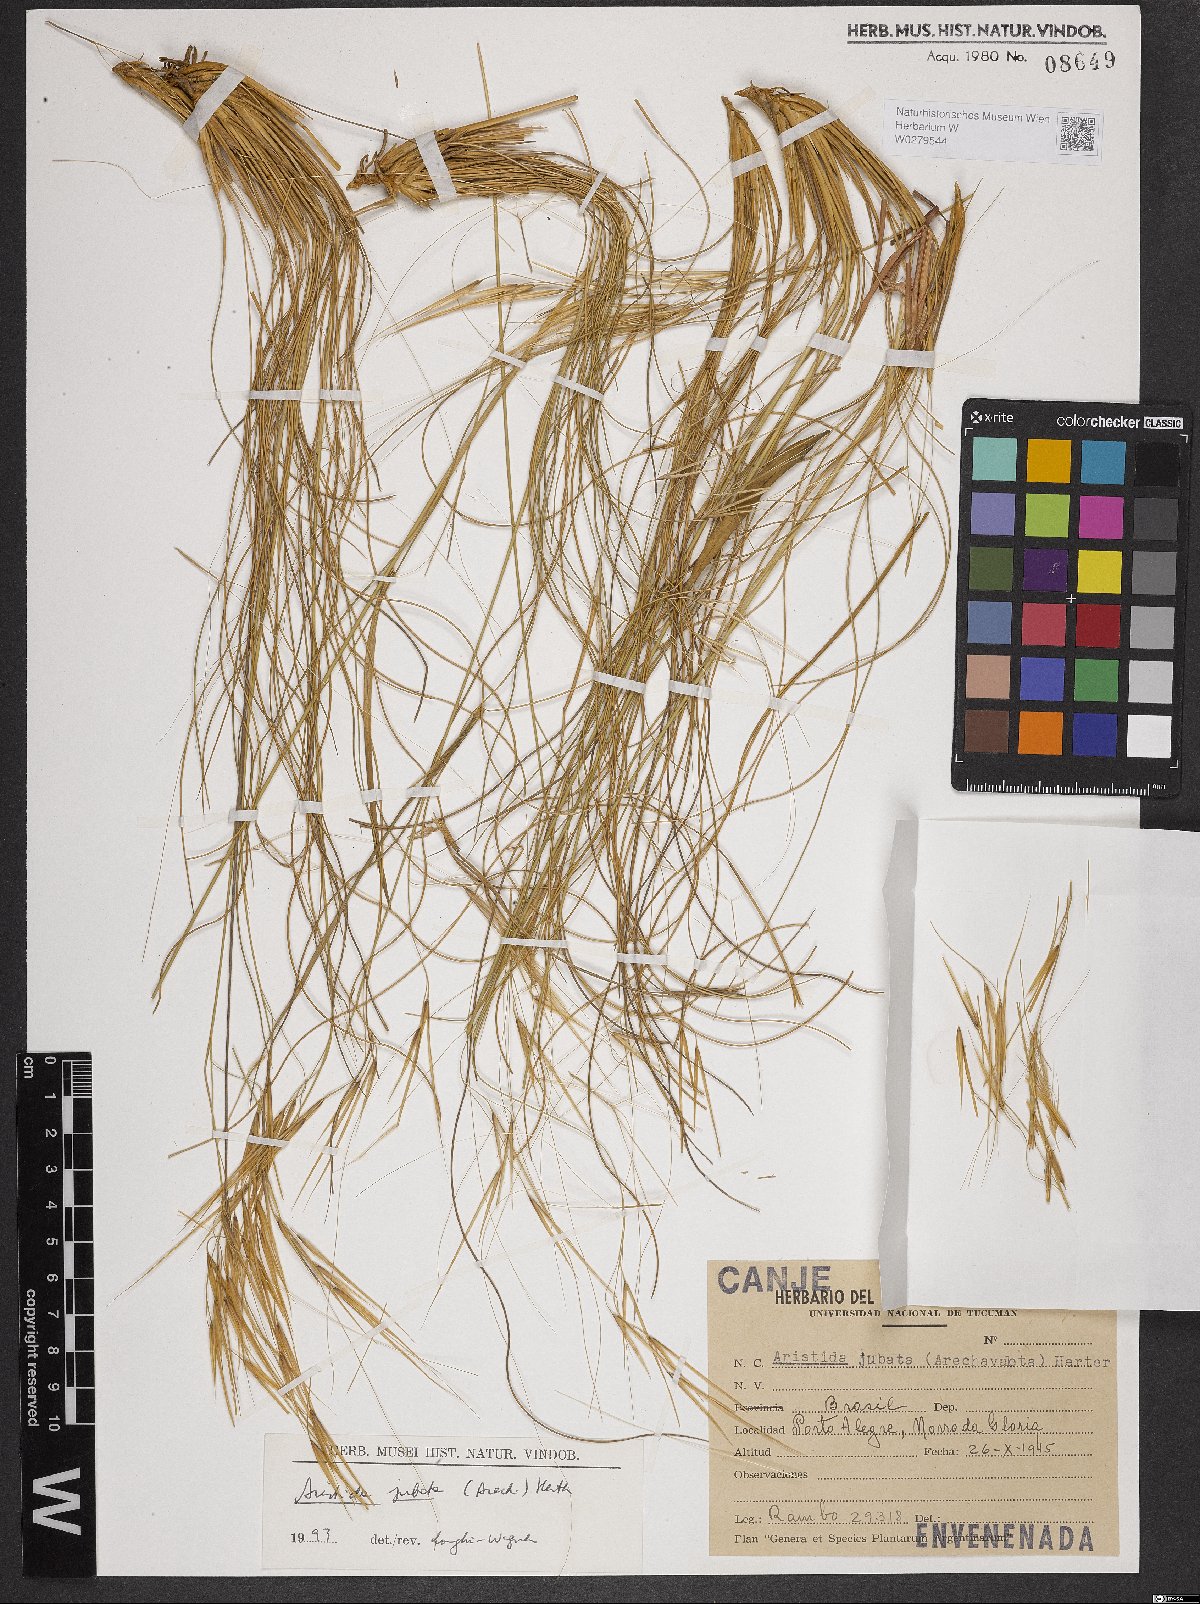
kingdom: Plantae
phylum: Tracheophyta
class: Liliopsida
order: Poales
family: Poaceae
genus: Aristida
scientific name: Aristida jubata
